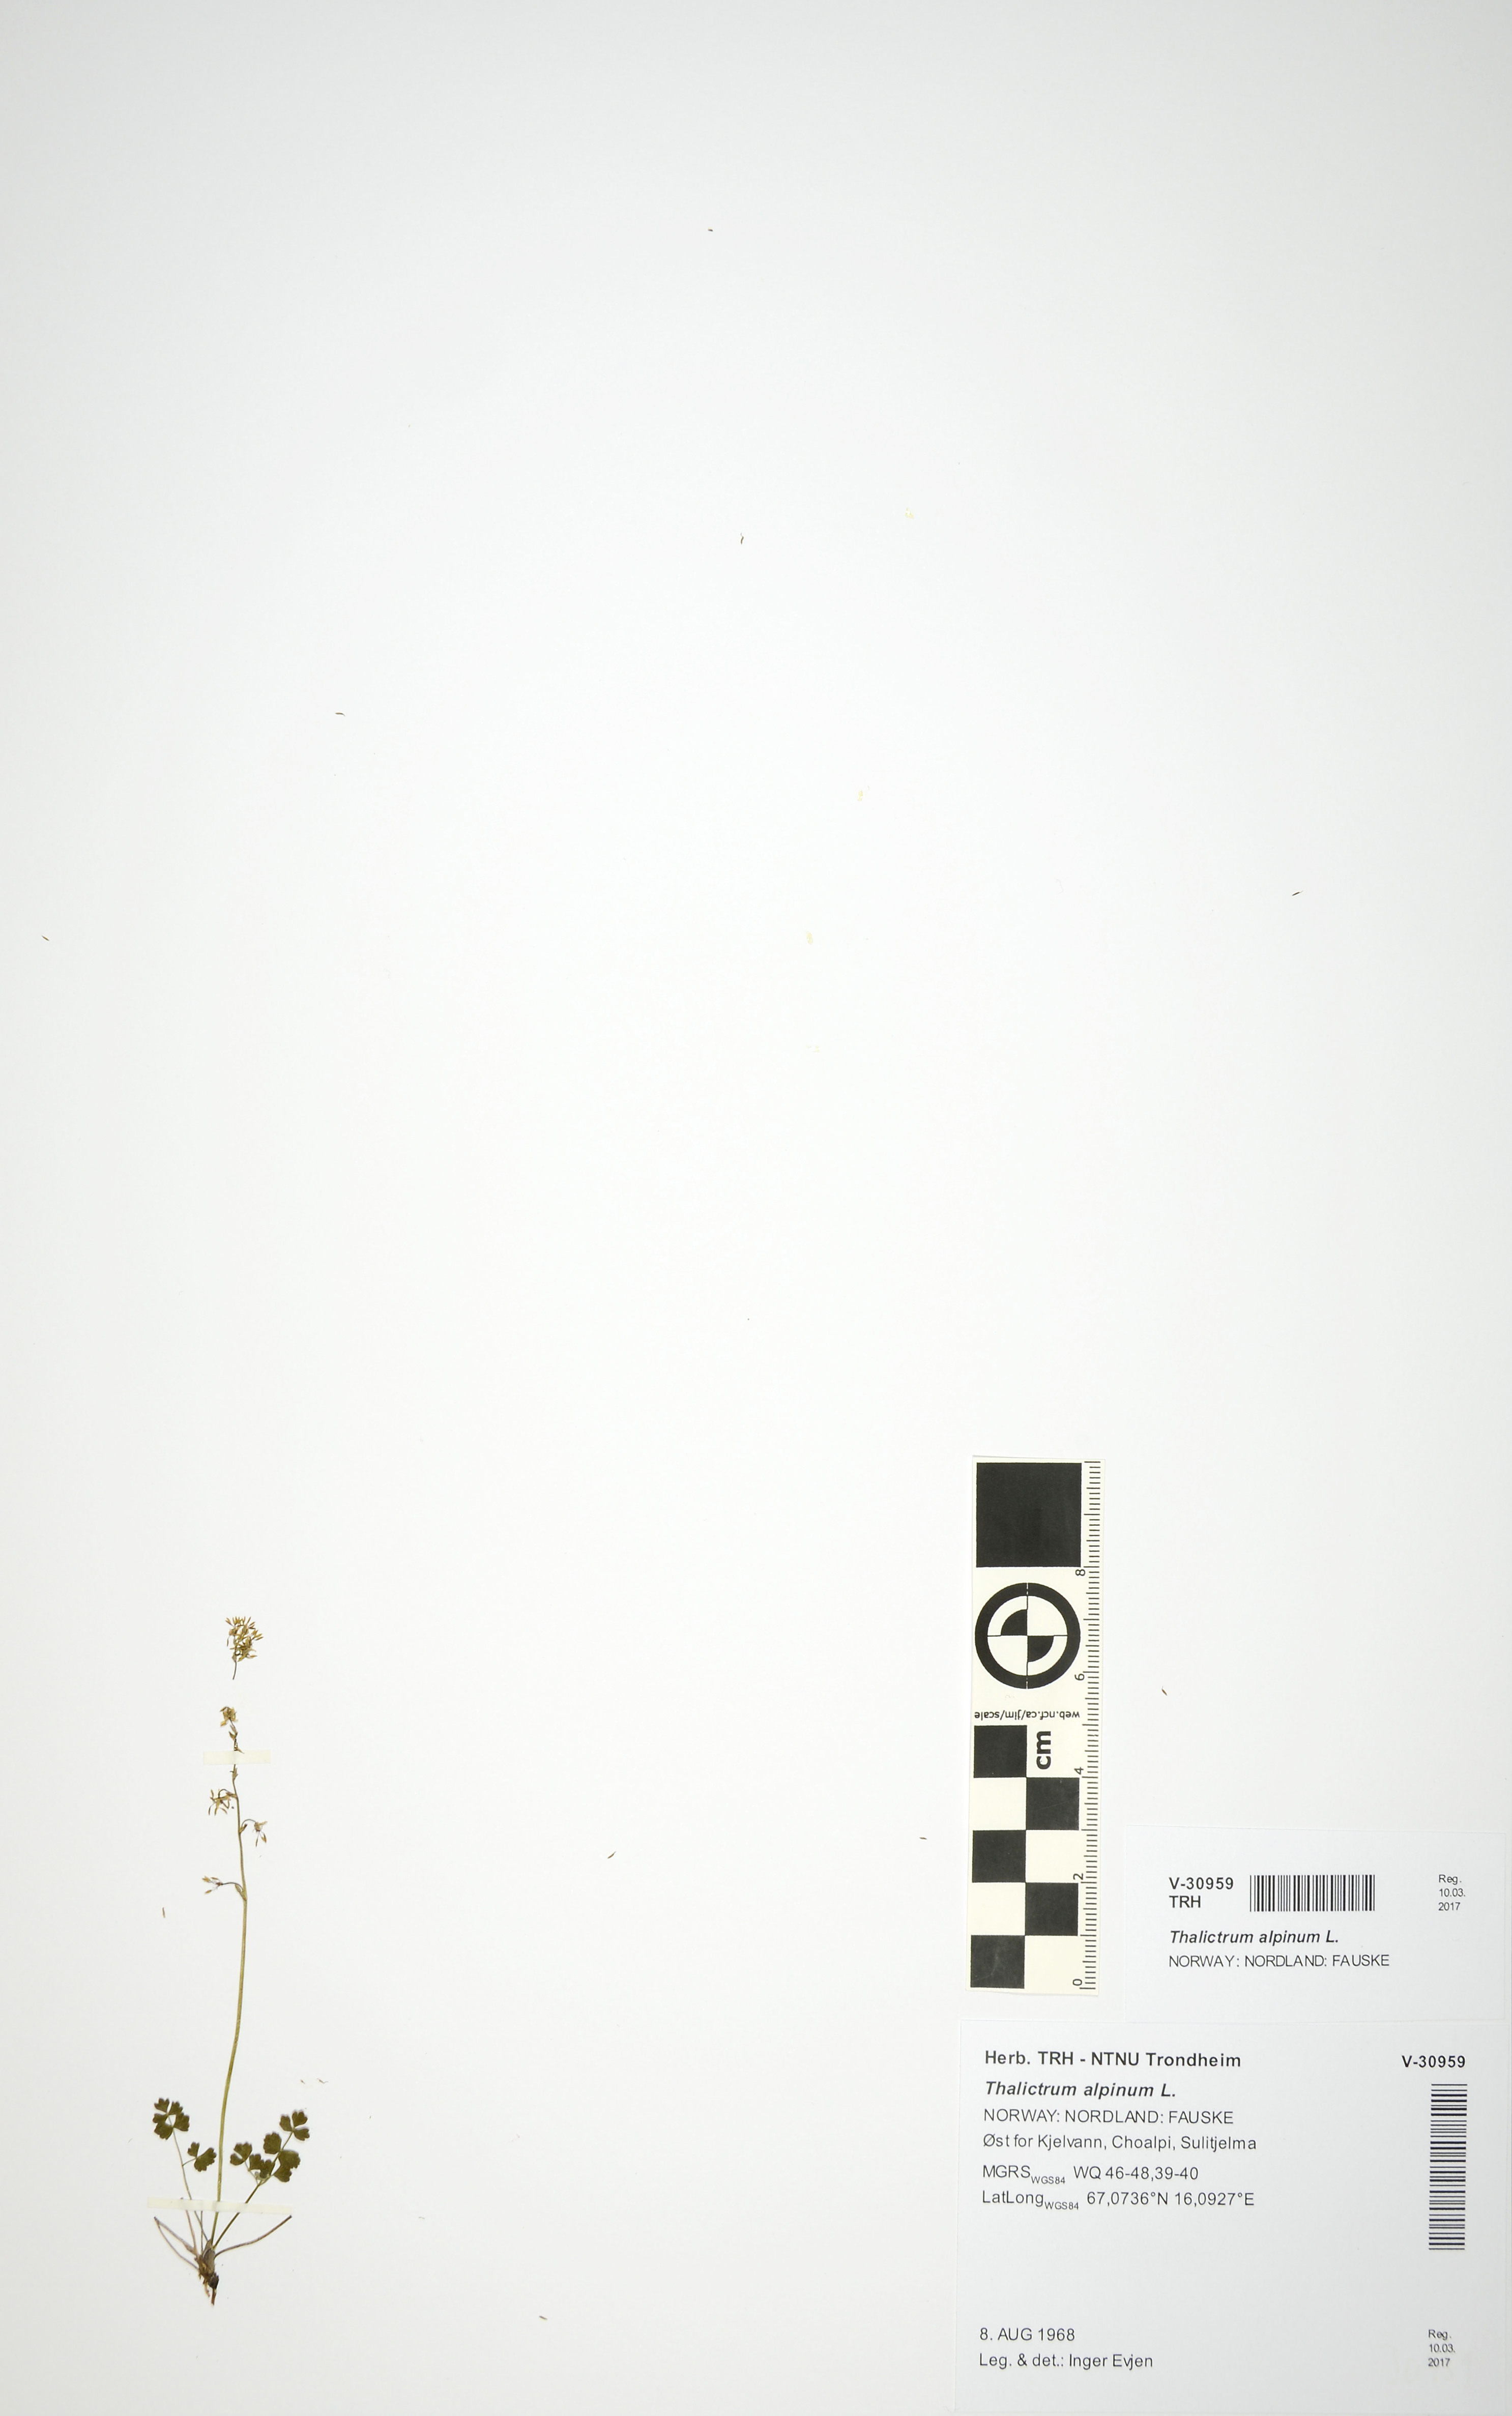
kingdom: Plantae
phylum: Tracheophyta
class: Magnoliopsida
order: Ranunculales
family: Ranunculaceae
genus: Thalictrum
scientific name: Thalictrum alpinum
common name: Alpine meadow-rue
